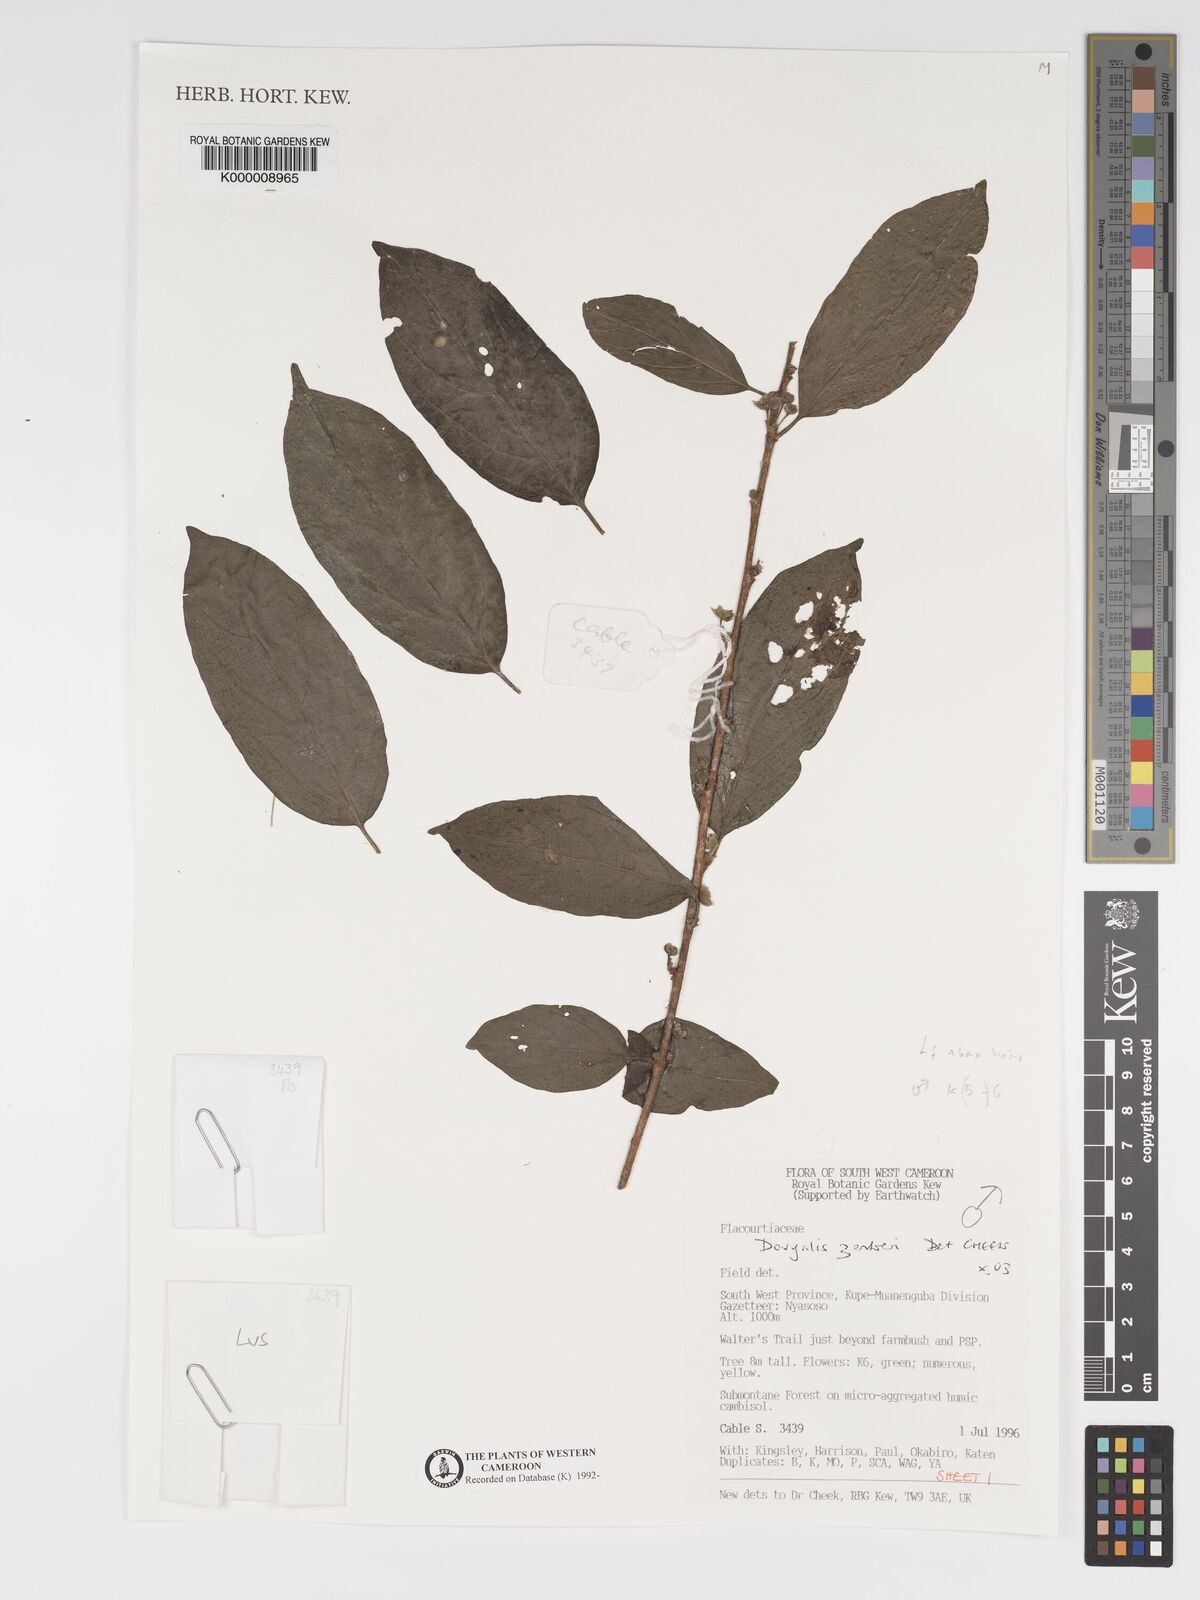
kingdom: Plantae
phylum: Tracheophyta
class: Magnoliopsida
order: Malpighiales
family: Salicaceae
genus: Dovyalis
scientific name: Dovyalis zenkeri
